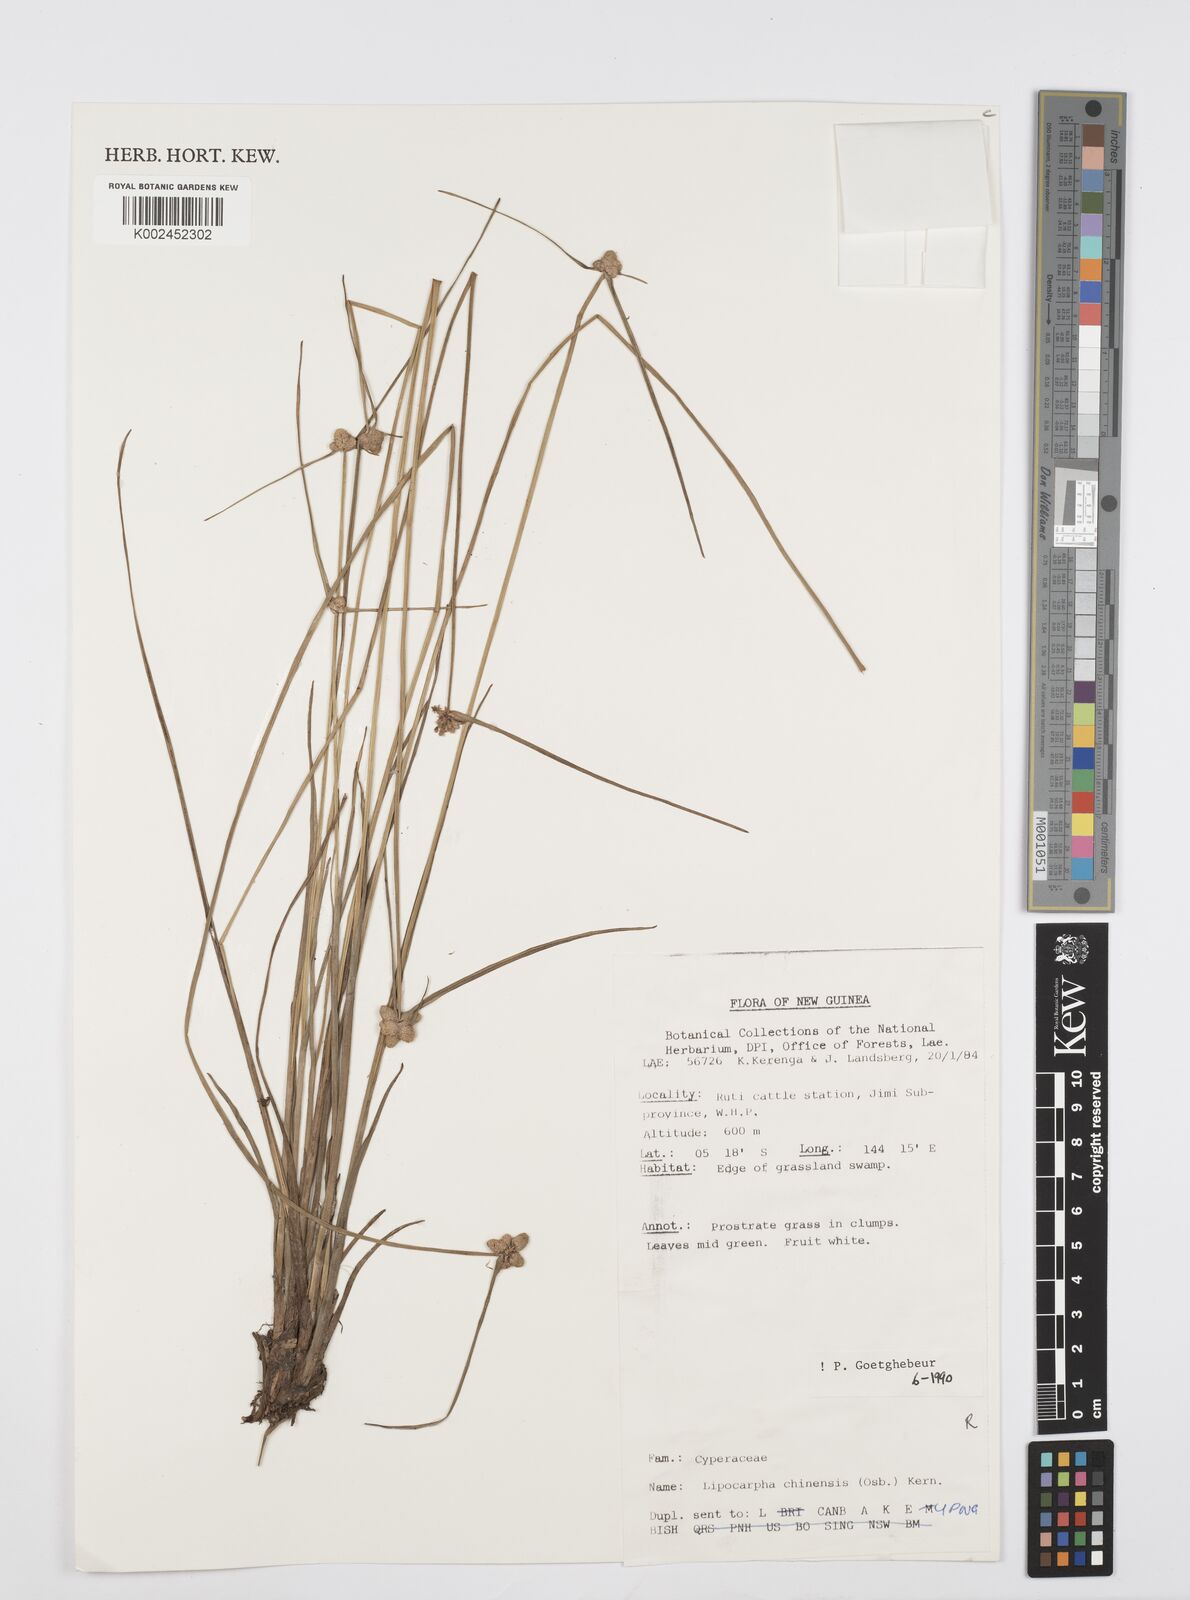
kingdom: Plantae
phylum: Tracheophyta
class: Liliopsida
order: Poales
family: Cyperaceae
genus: Cyperus
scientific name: Cyperus albescens
